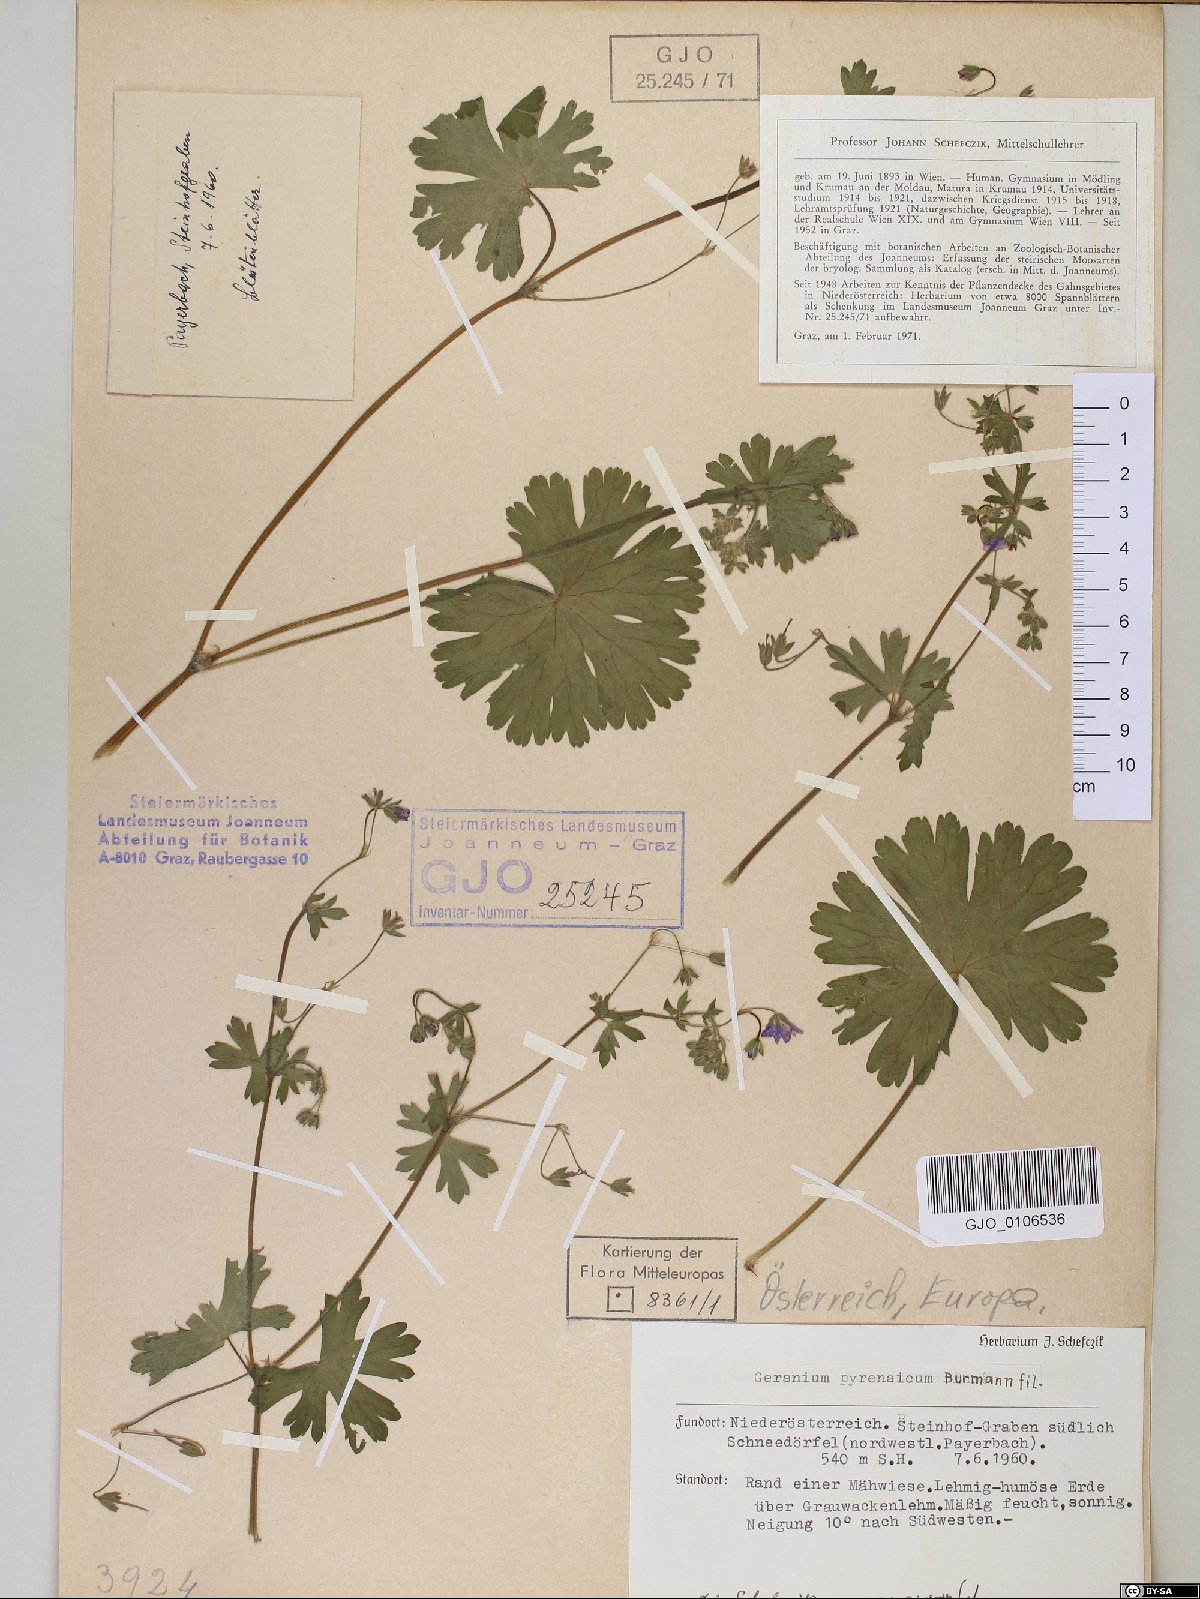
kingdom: Plantae
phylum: Tracheophyta
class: Magnoliopsida
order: Geraniales
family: Geraniaceae
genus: Geranium
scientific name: Geranium pyrenaicum
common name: Hedgerow crane's-bill
